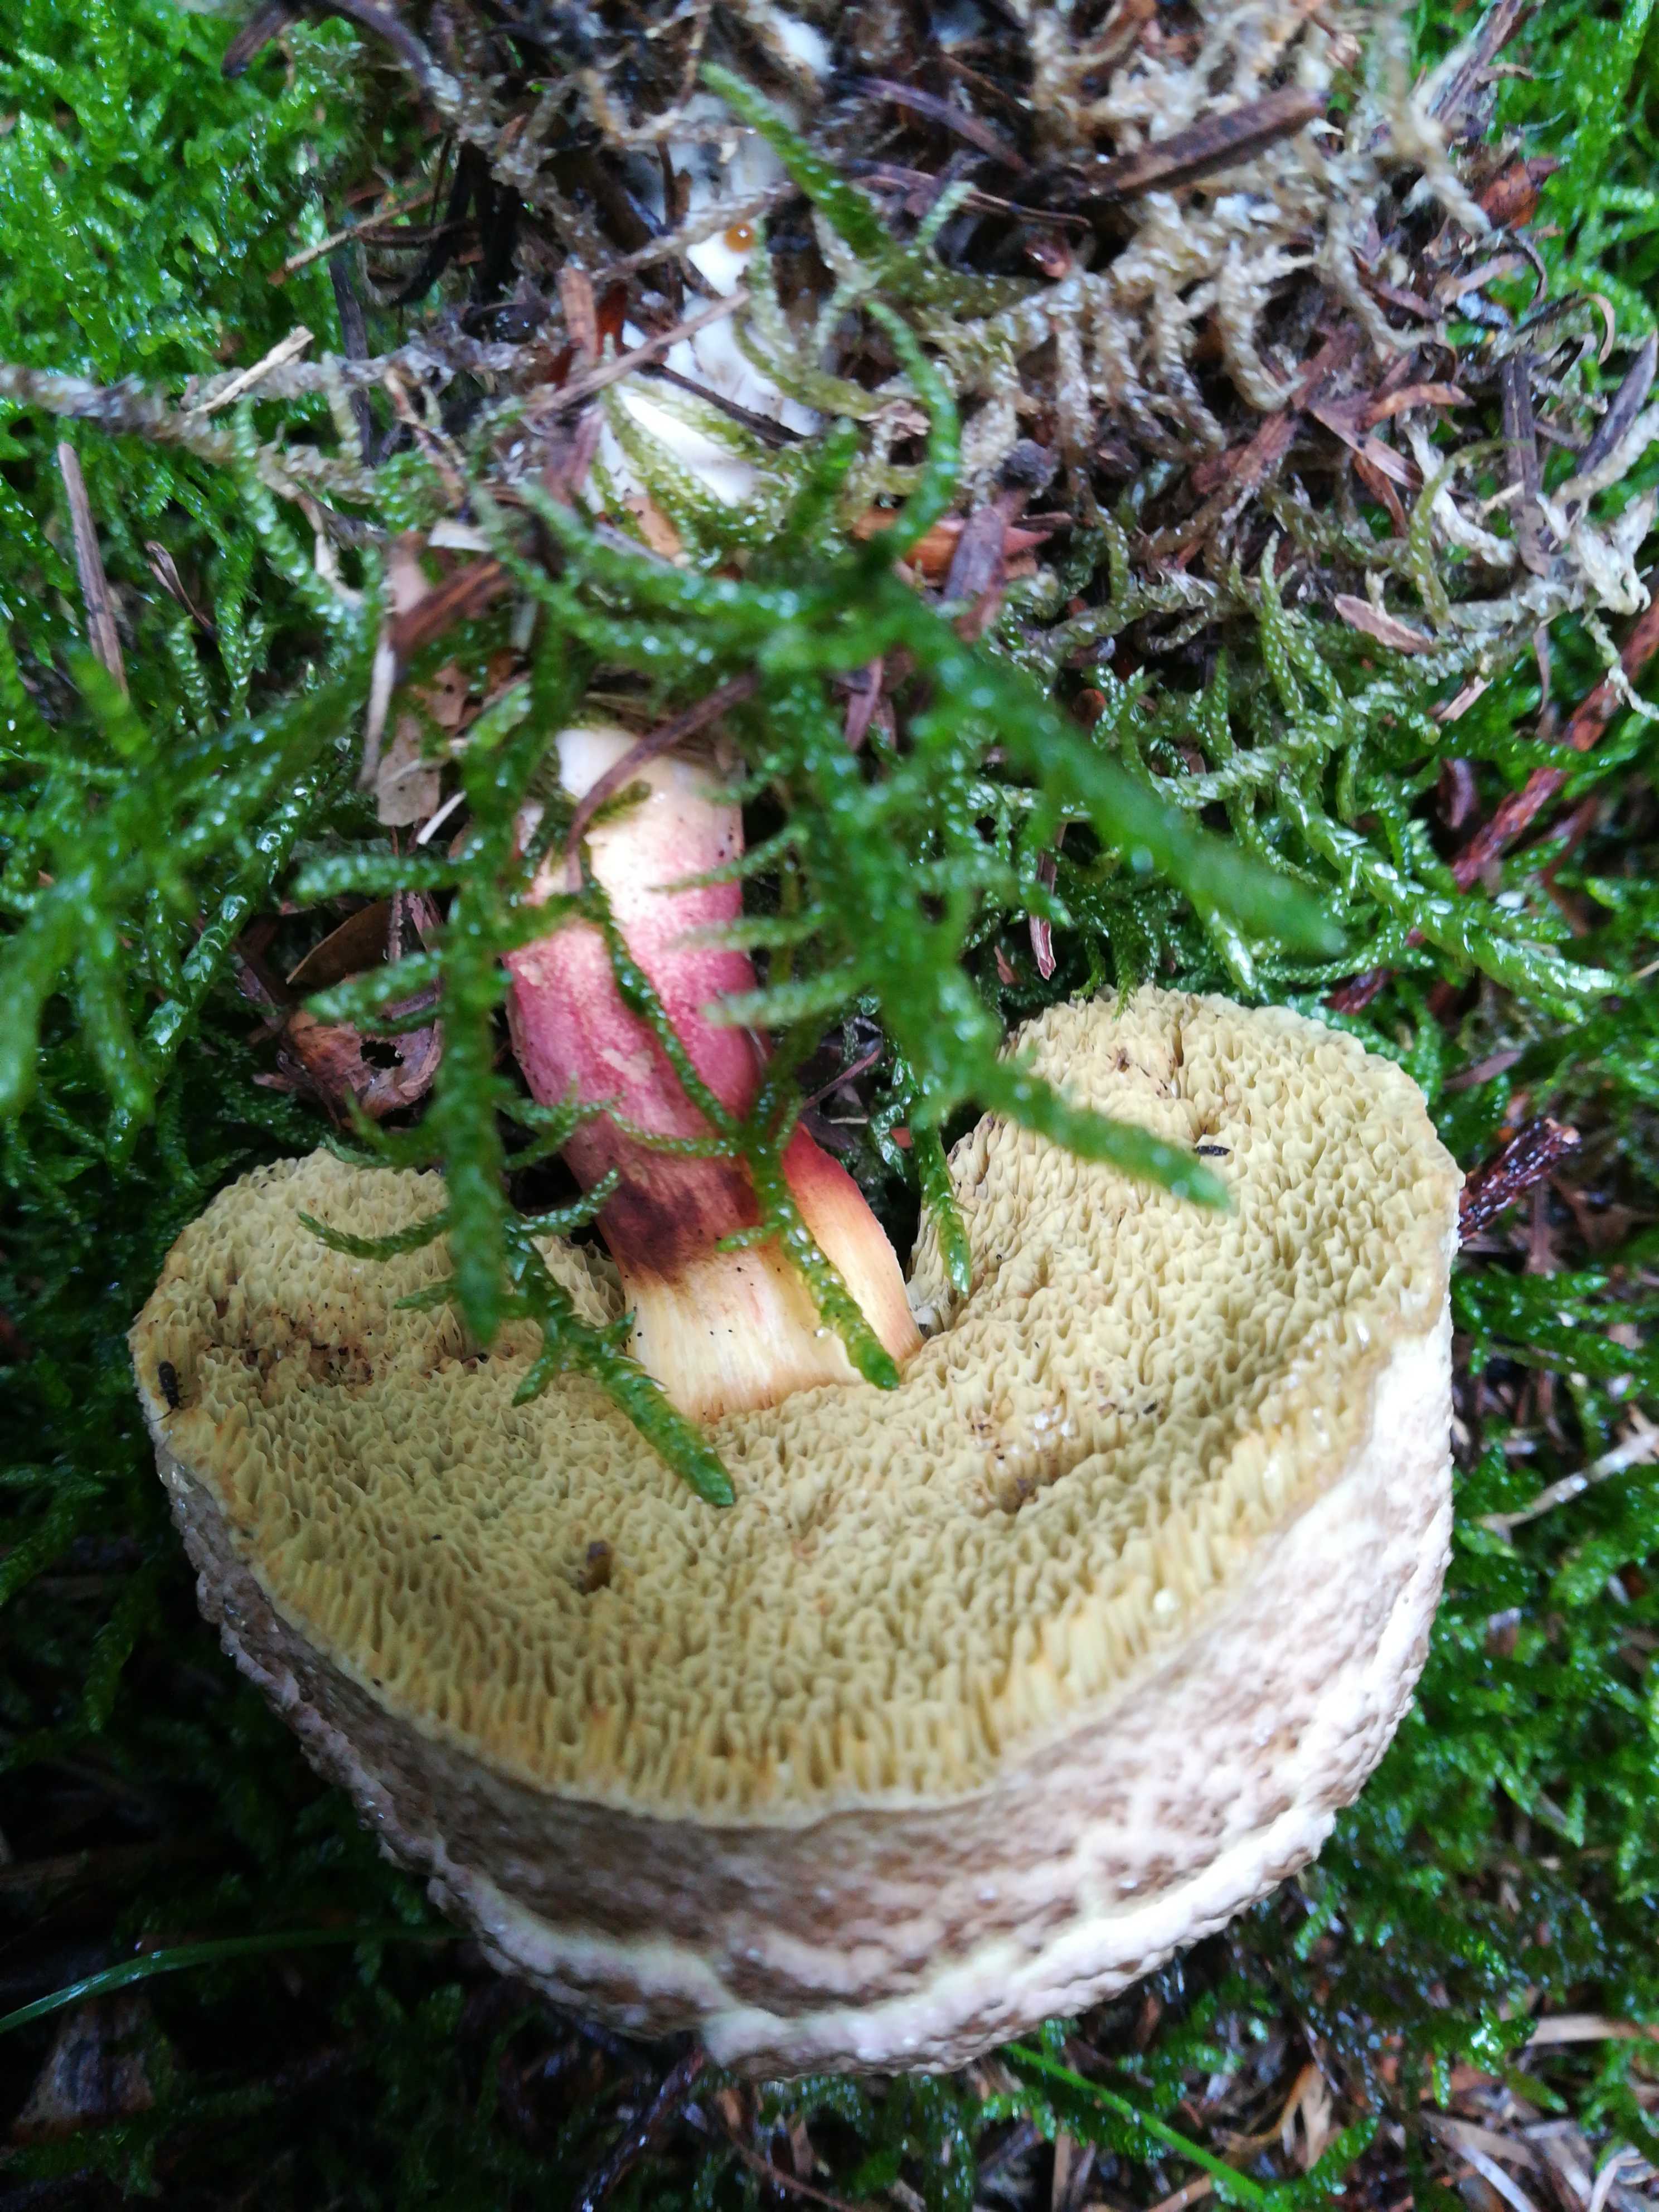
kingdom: Fungi
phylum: Basidiomycota
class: Agaricomycetes
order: Boletales
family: Boletaceae
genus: Xerocomellus
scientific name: Xerocomellus
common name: dværgrørhat
